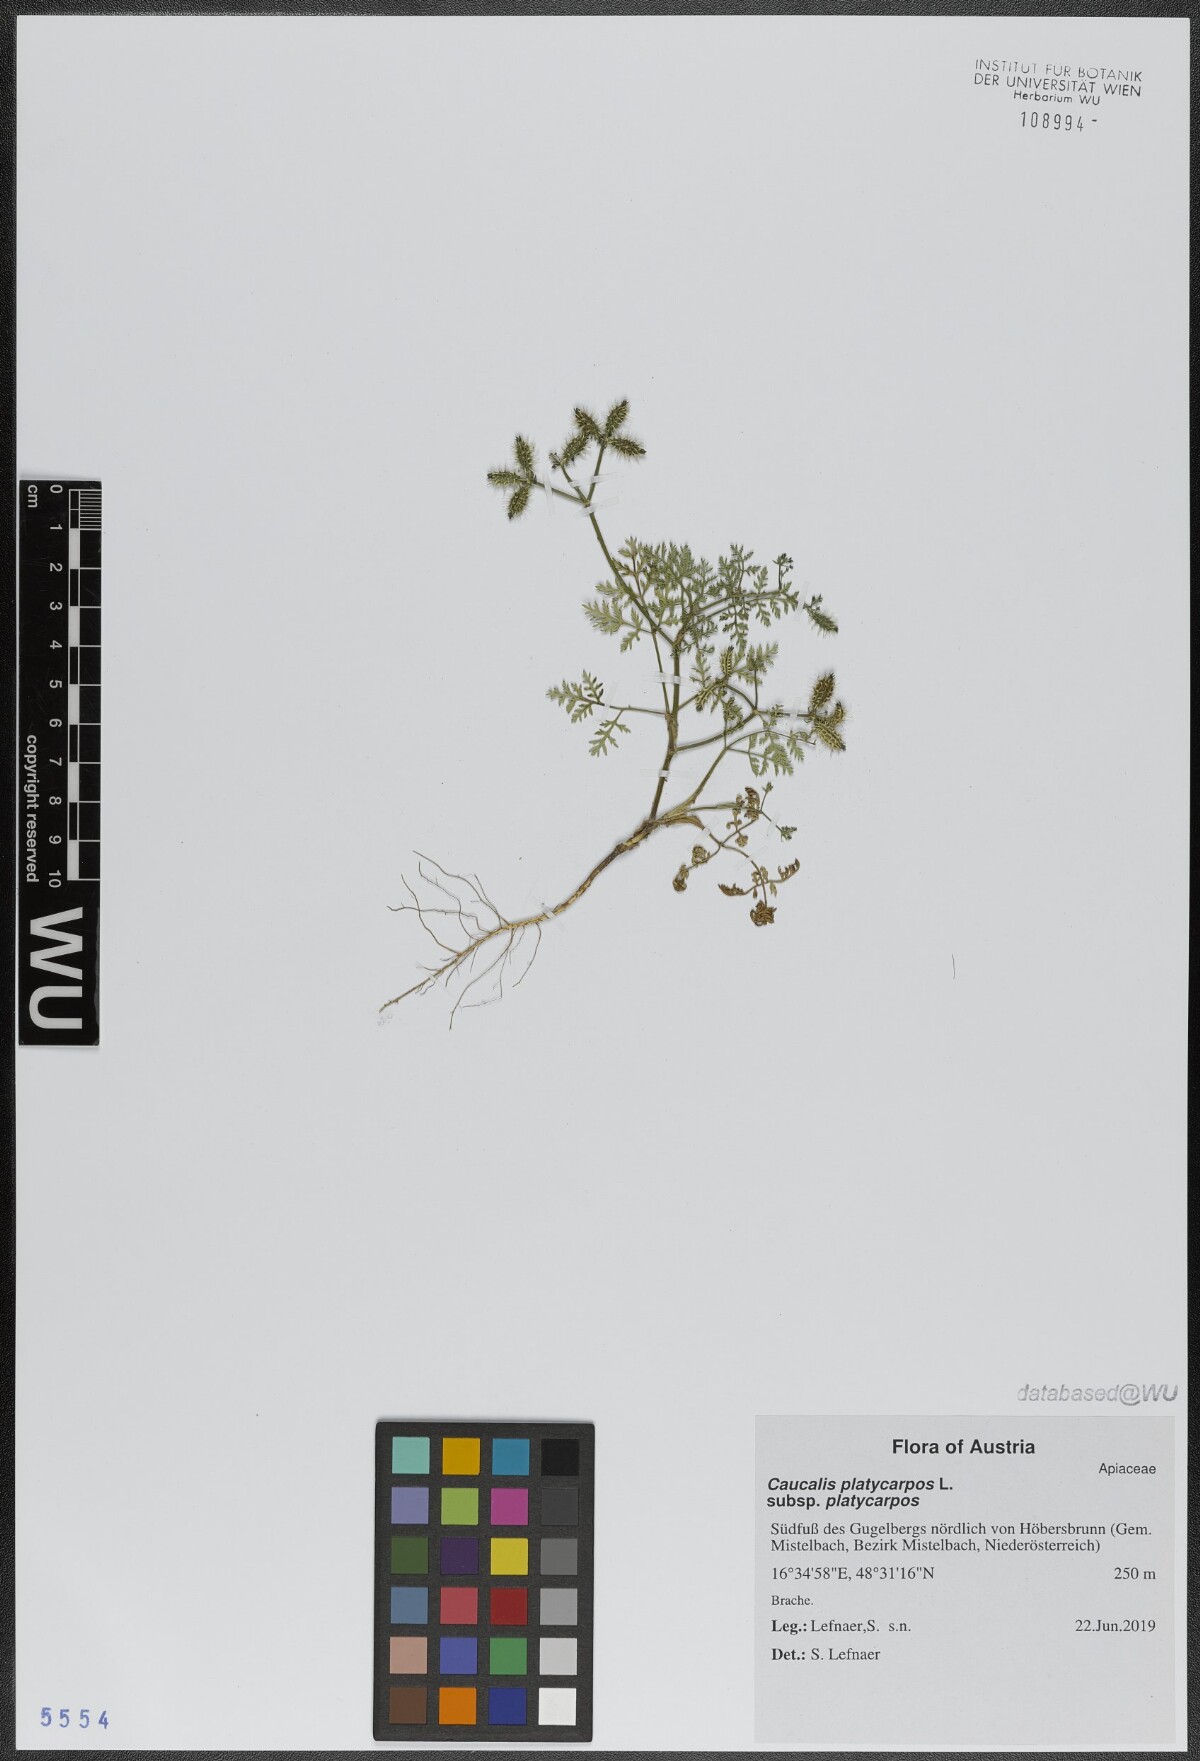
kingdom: Plantae
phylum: Tracheophyta
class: Magnoliopsida
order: Apiales
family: Apiaceae
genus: Caucalis
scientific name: Caucalis platycarpos
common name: Small bur-parsley
